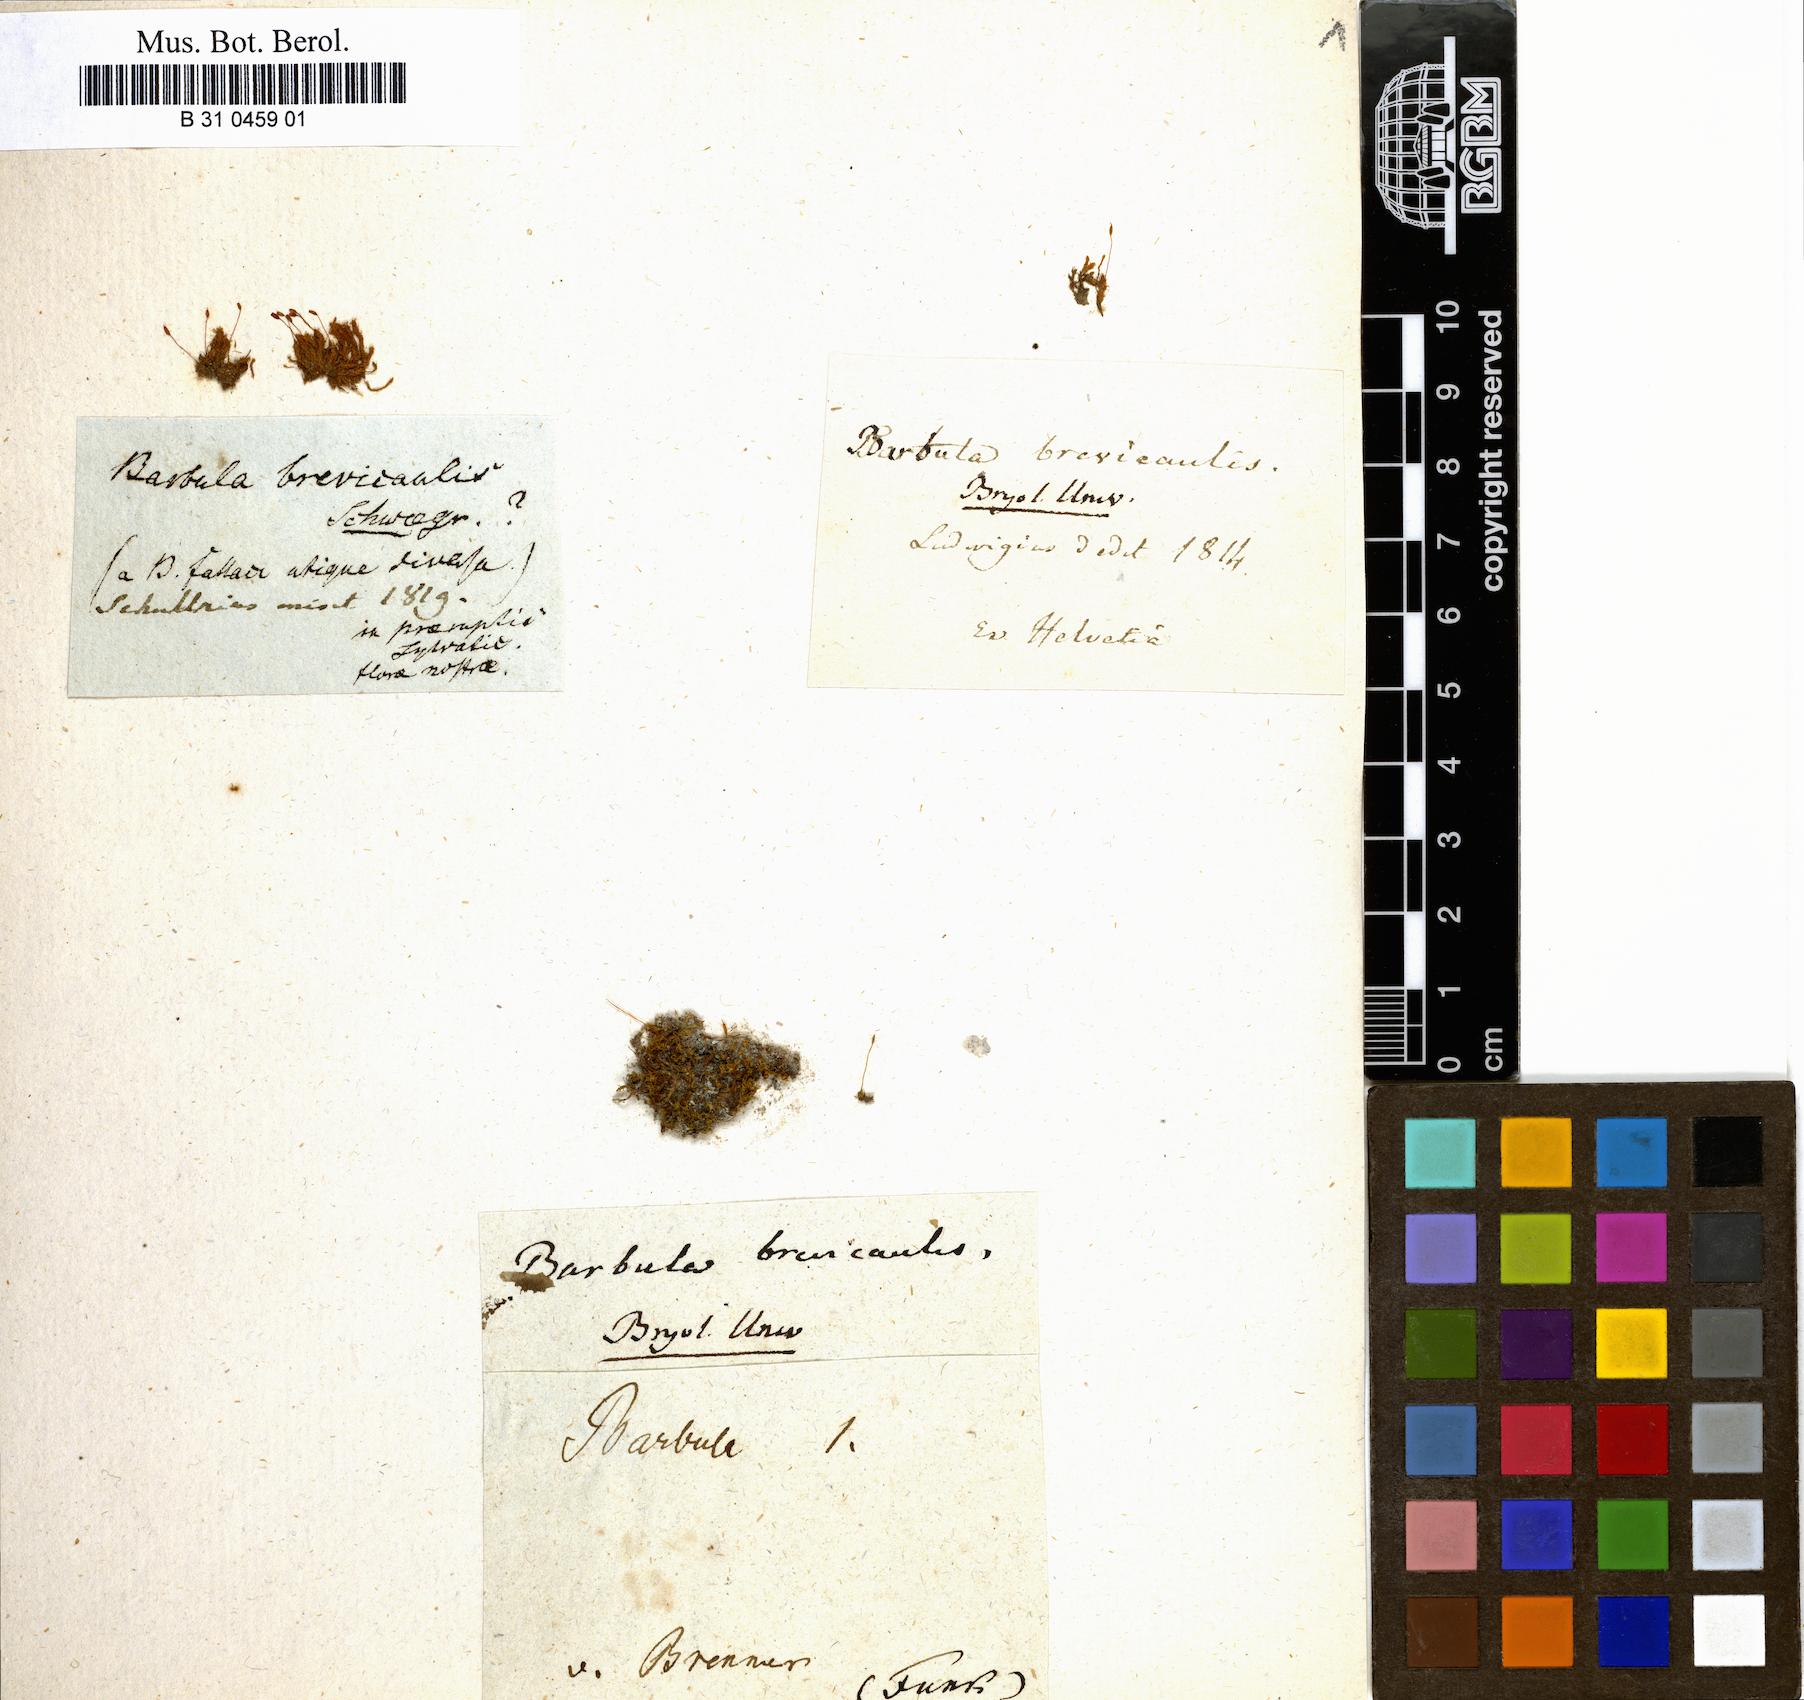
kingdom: Plantae
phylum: Bryophyta
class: Bryopsida
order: Pottiales
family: Pottiaceae
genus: Geheebia
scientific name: Geheebia fallax
